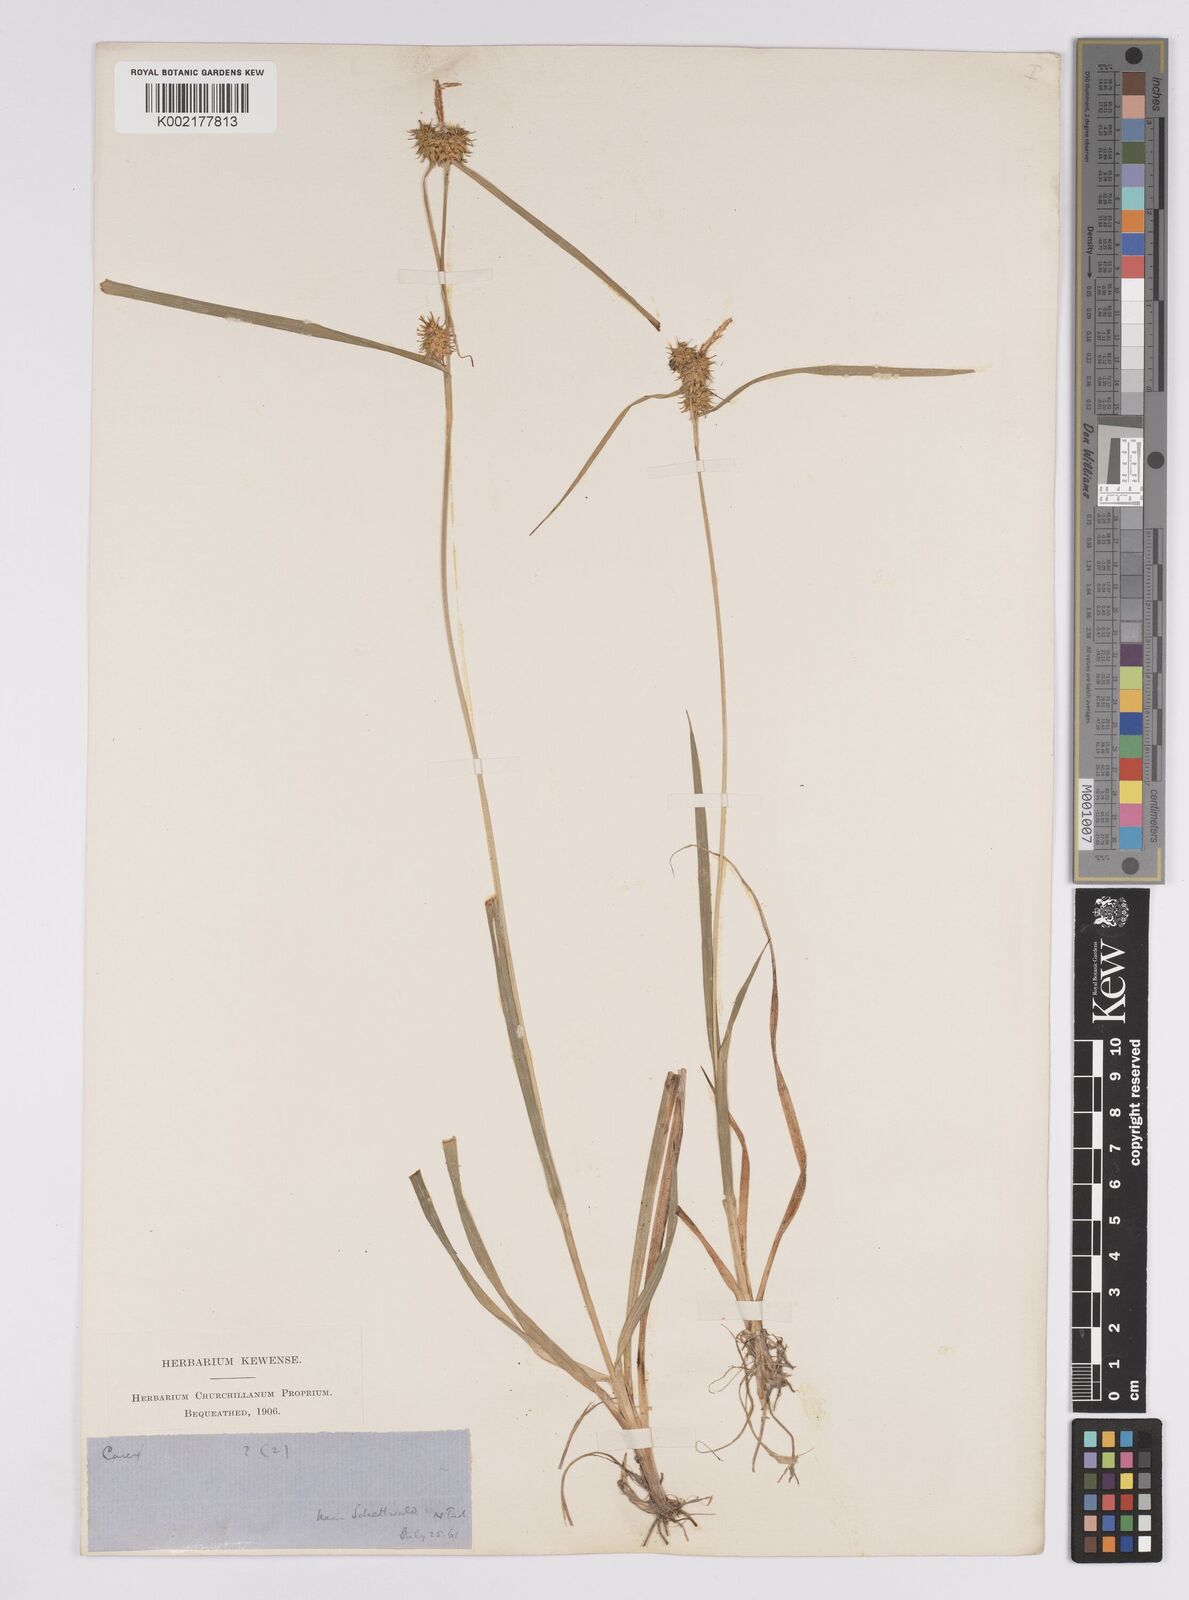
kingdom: Plantae
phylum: Tracheophyta
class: Liliopsida
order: Poales
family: Cyperaceae
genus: Carex
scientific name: Carex flava
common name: Large yellow-sedge
